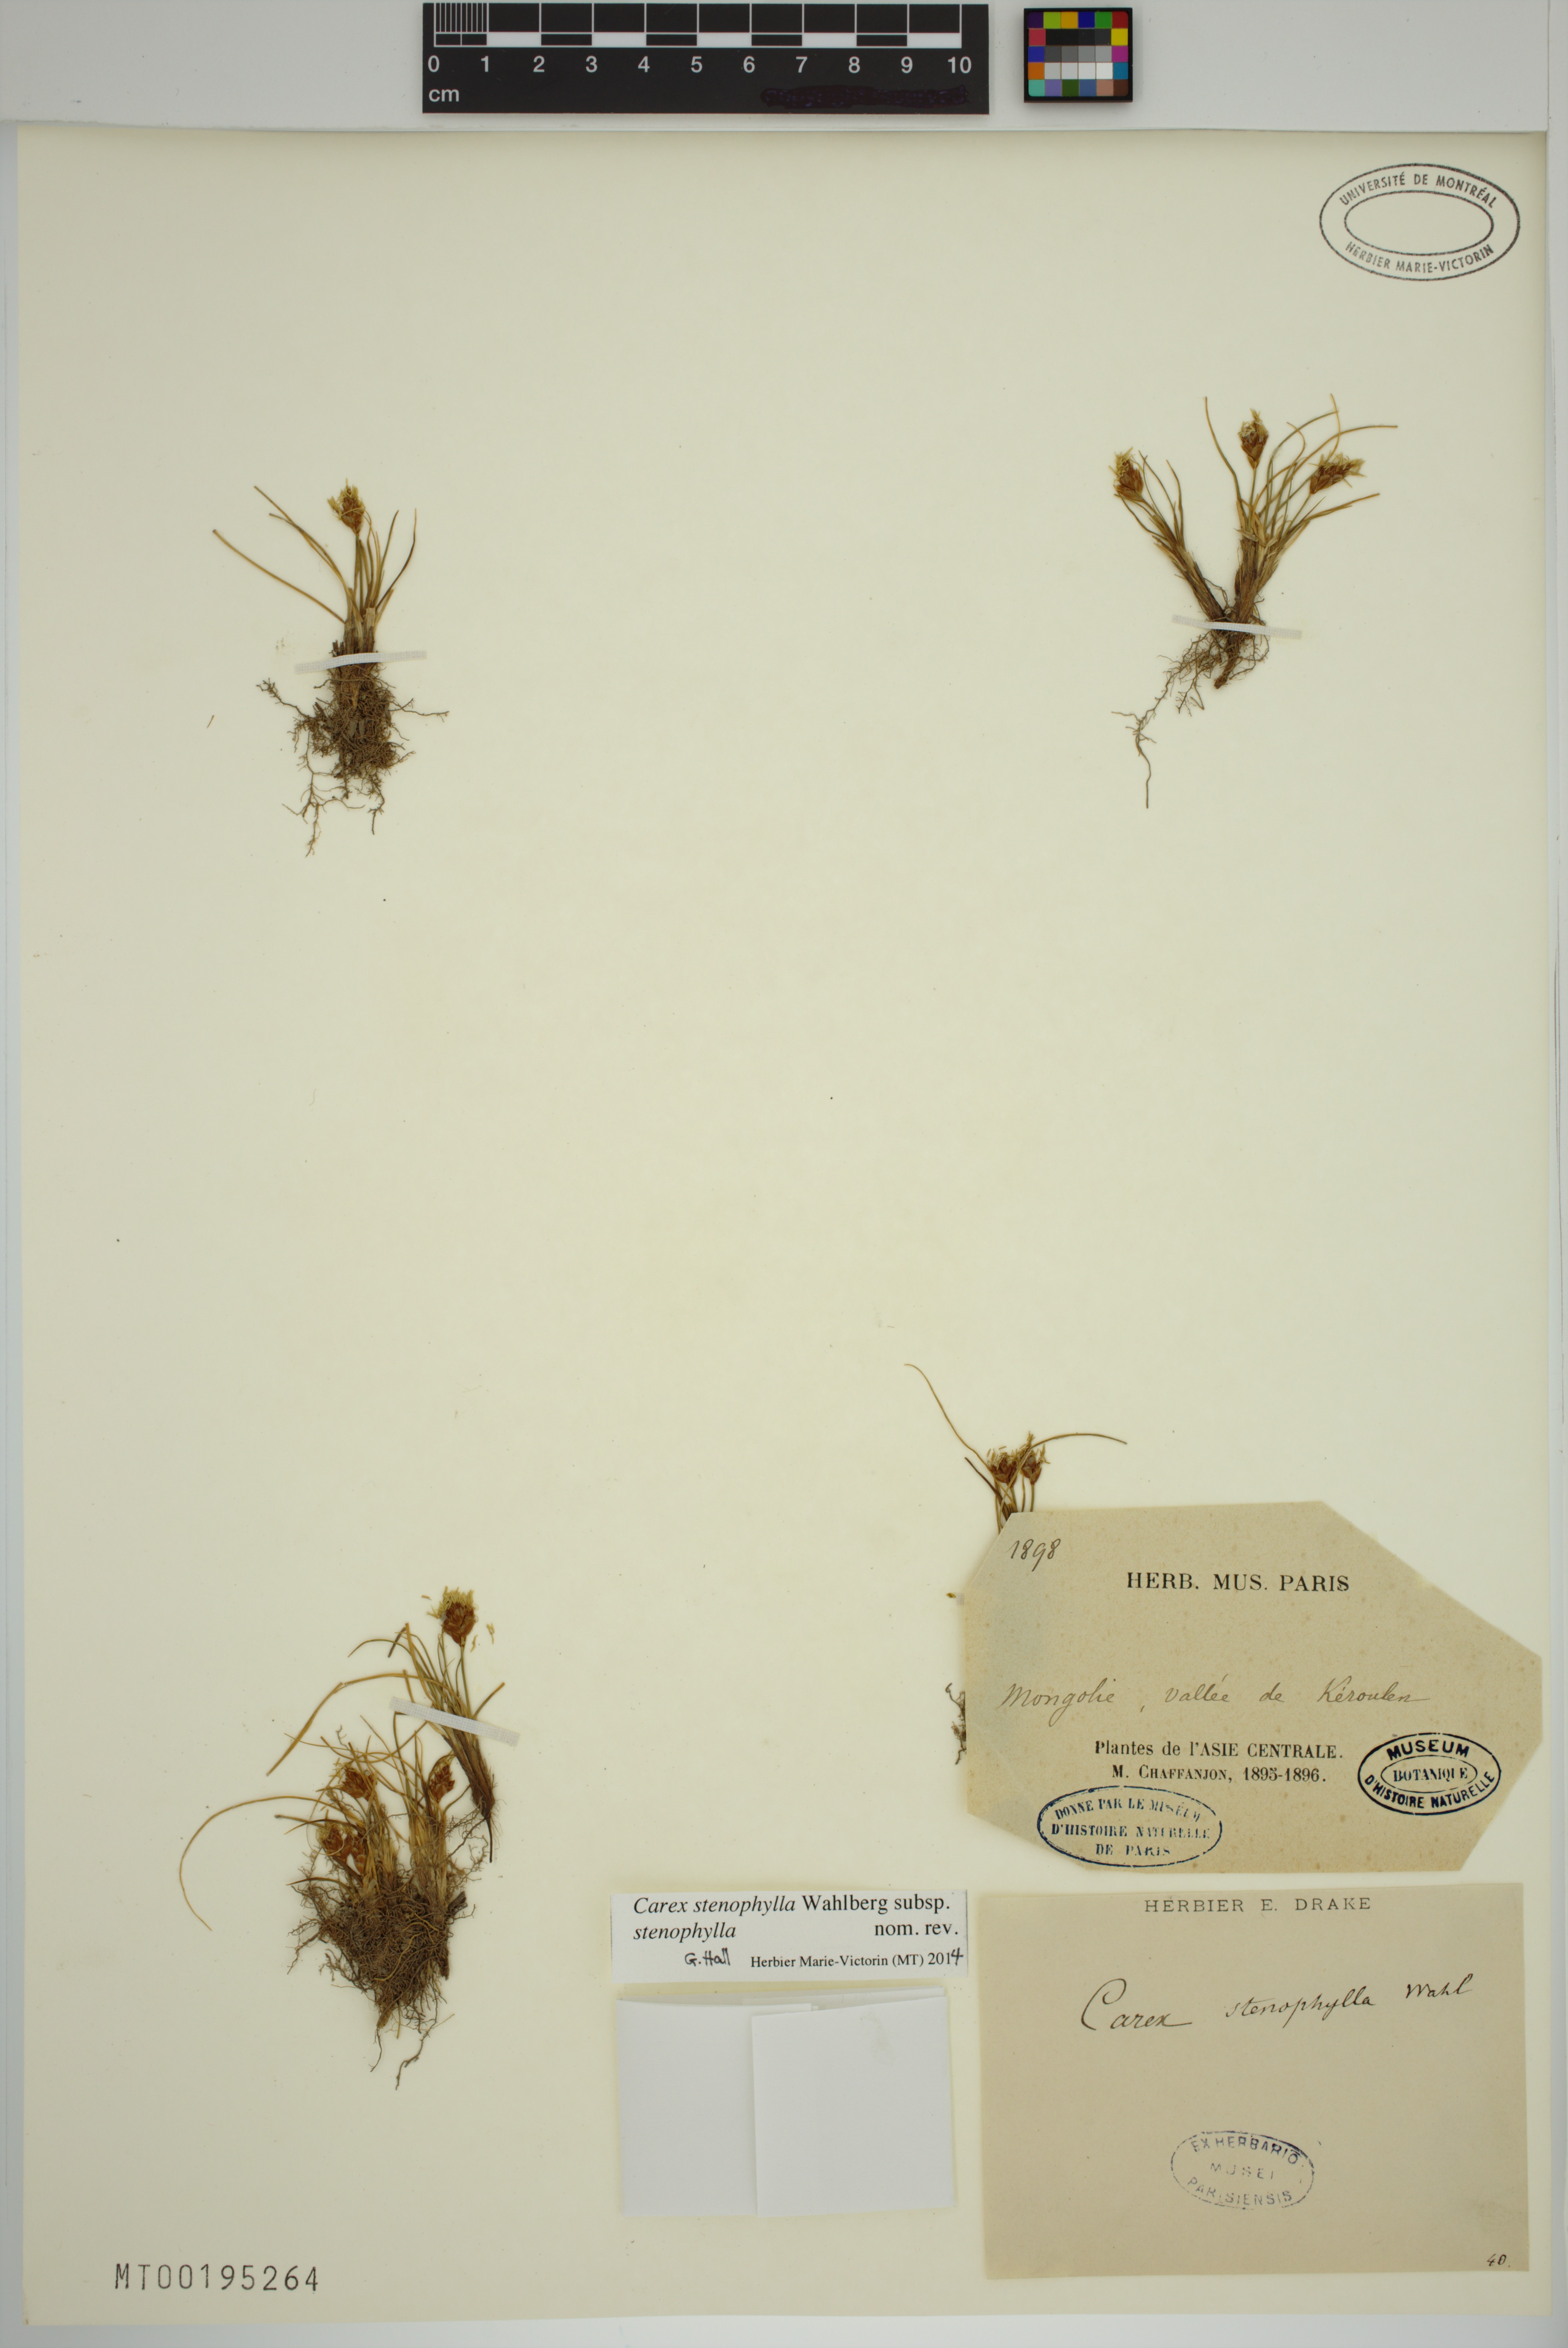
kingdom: Plantae
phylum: Tracheophyta
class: Liliopsida
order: Poales
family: Cyperaceae
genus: Carex
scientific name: Carex stenophylla
